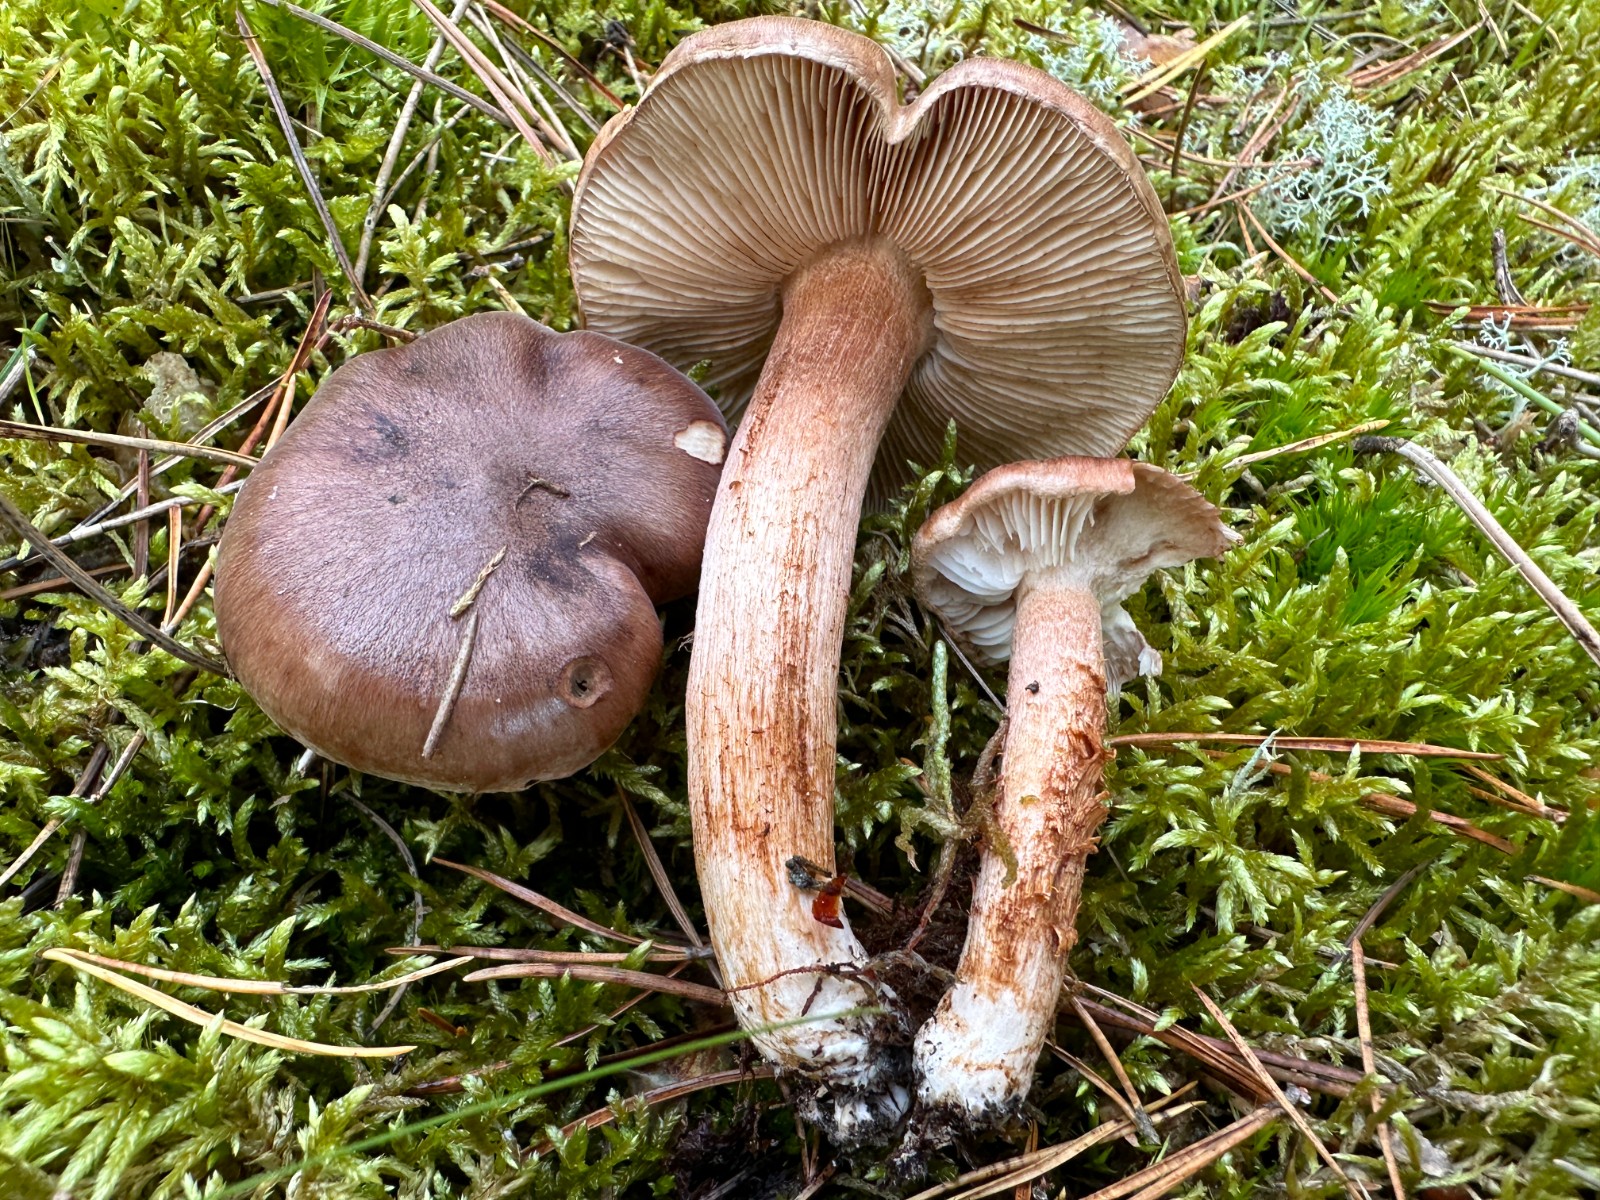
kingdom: Fungi
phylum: Basidiomycota
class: Agaricomycetes
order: Agaricales
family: Tricholomataceae
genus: Tricholoma
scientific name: Tricholoma albobrunneum
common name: kastanie-ridderhat
